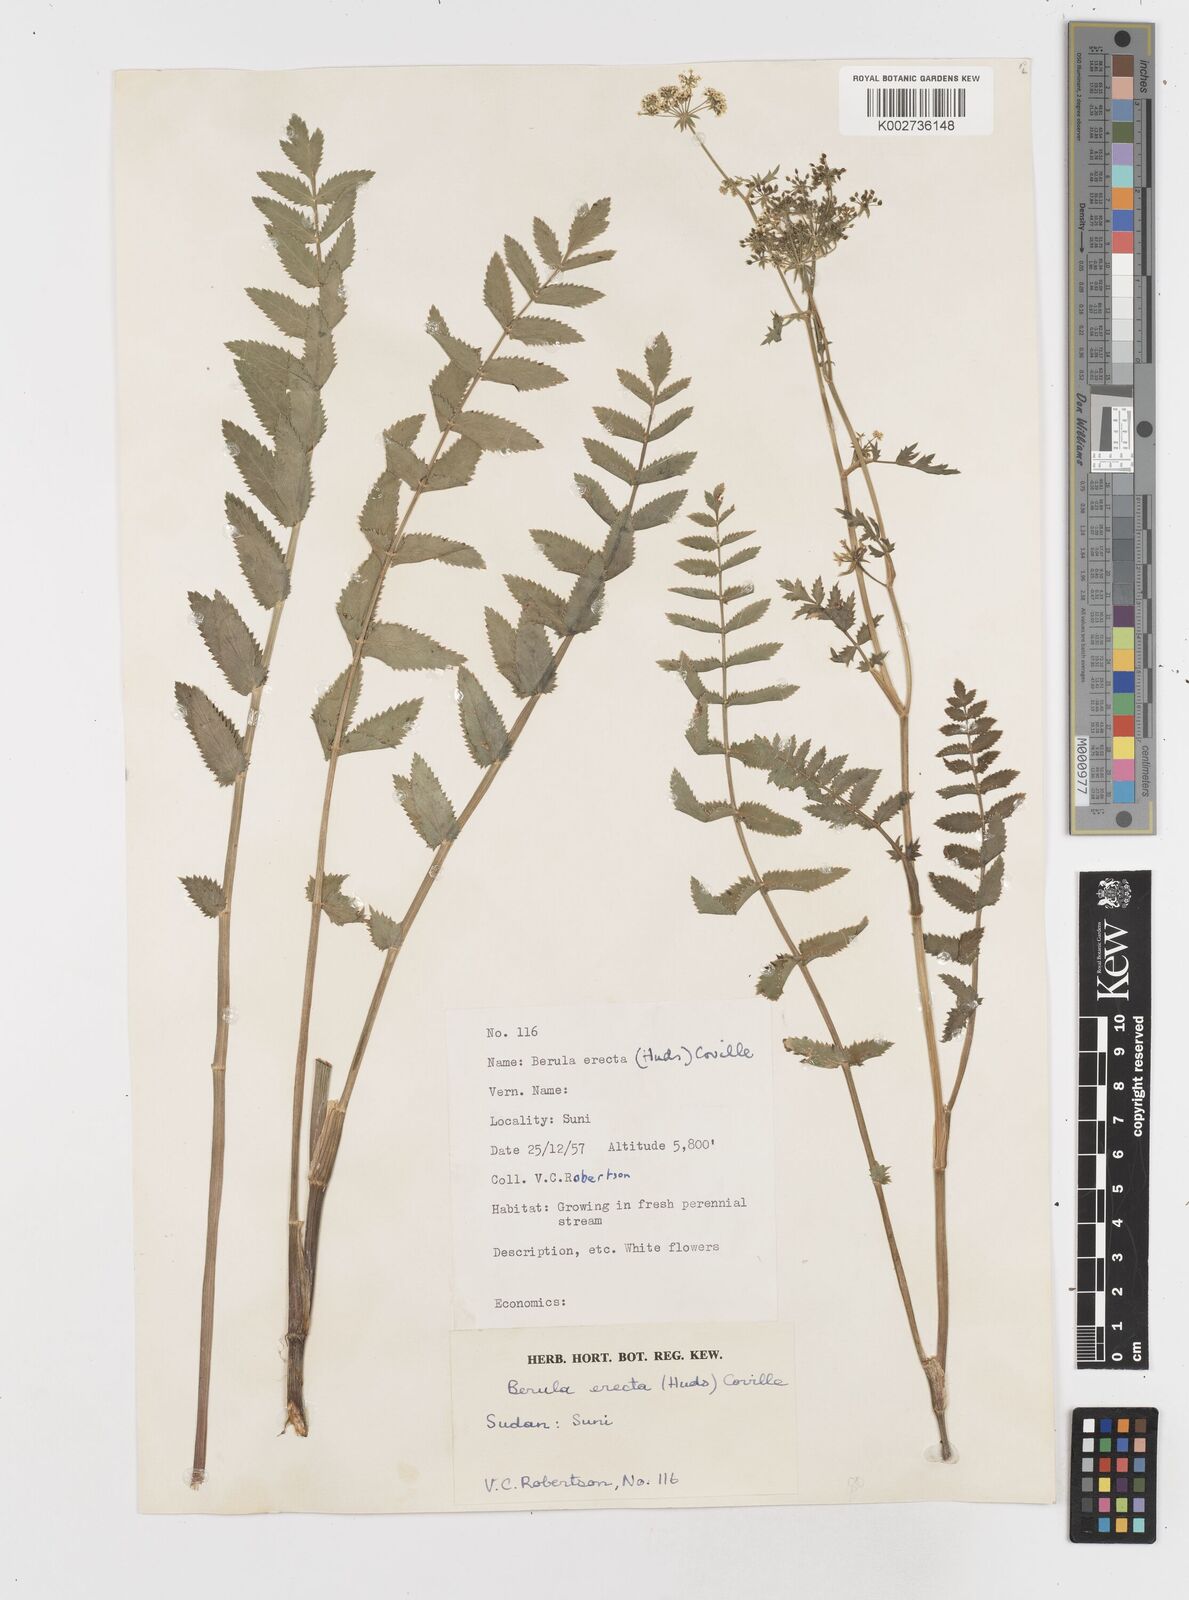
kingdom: Plantae
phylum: Tracheophyta
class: Magnoliopsida
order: Apiales
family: Apiaceae
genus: Berula
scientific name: Berula erecta
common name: Lesser water-parsnip
